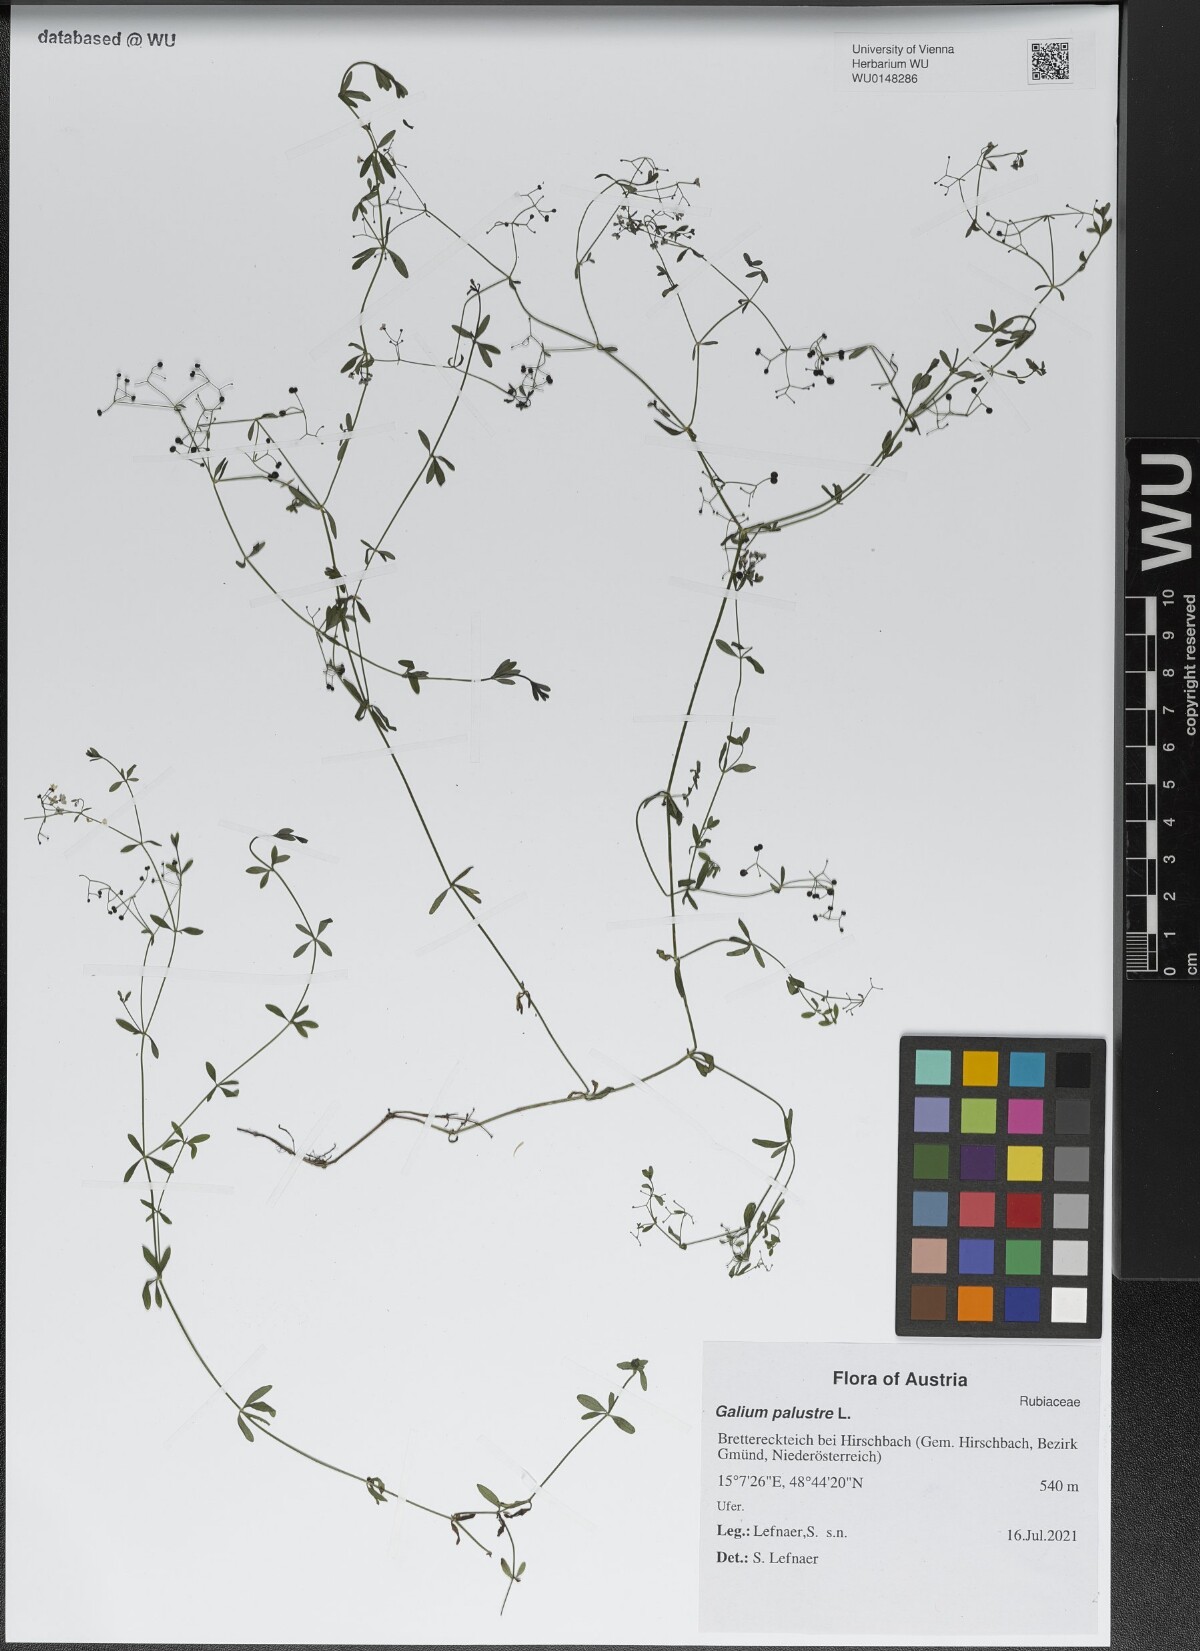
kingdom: Plantae
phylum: Tracheophyta
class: Magnoliopsida
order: Gentianales
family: Rubiaceae
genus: Galium
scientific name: Galium palustre
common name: Common marsh-bedstraw
